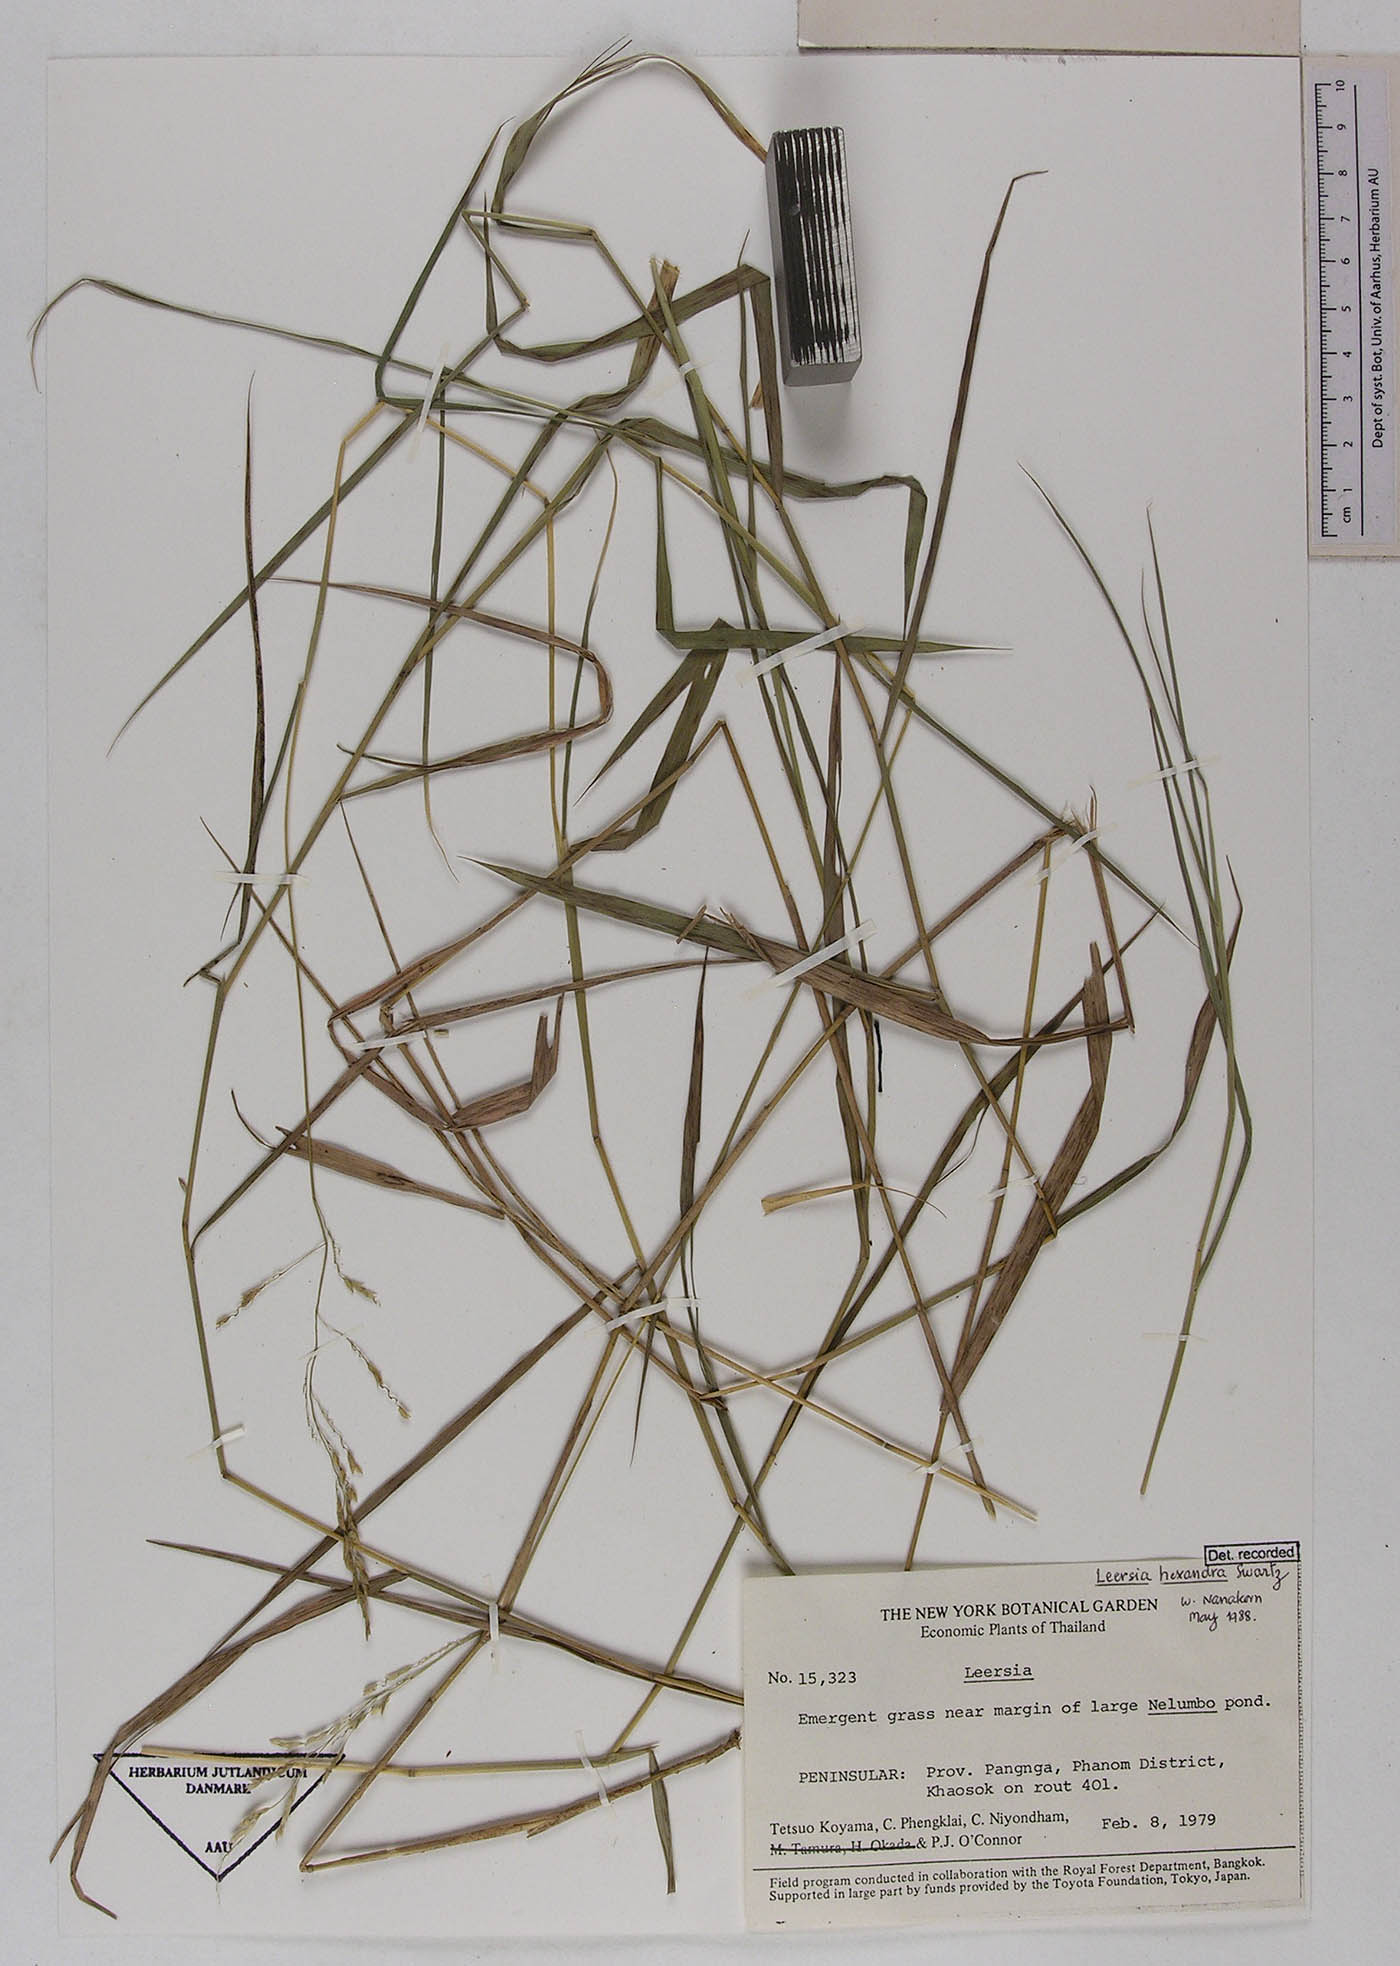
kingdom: Plantae
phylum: Tracheophyta
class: Liliopsida
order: Poales
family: Poaceae
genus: Leersia
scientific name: Leersia hexandra
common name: Southern cut grass
